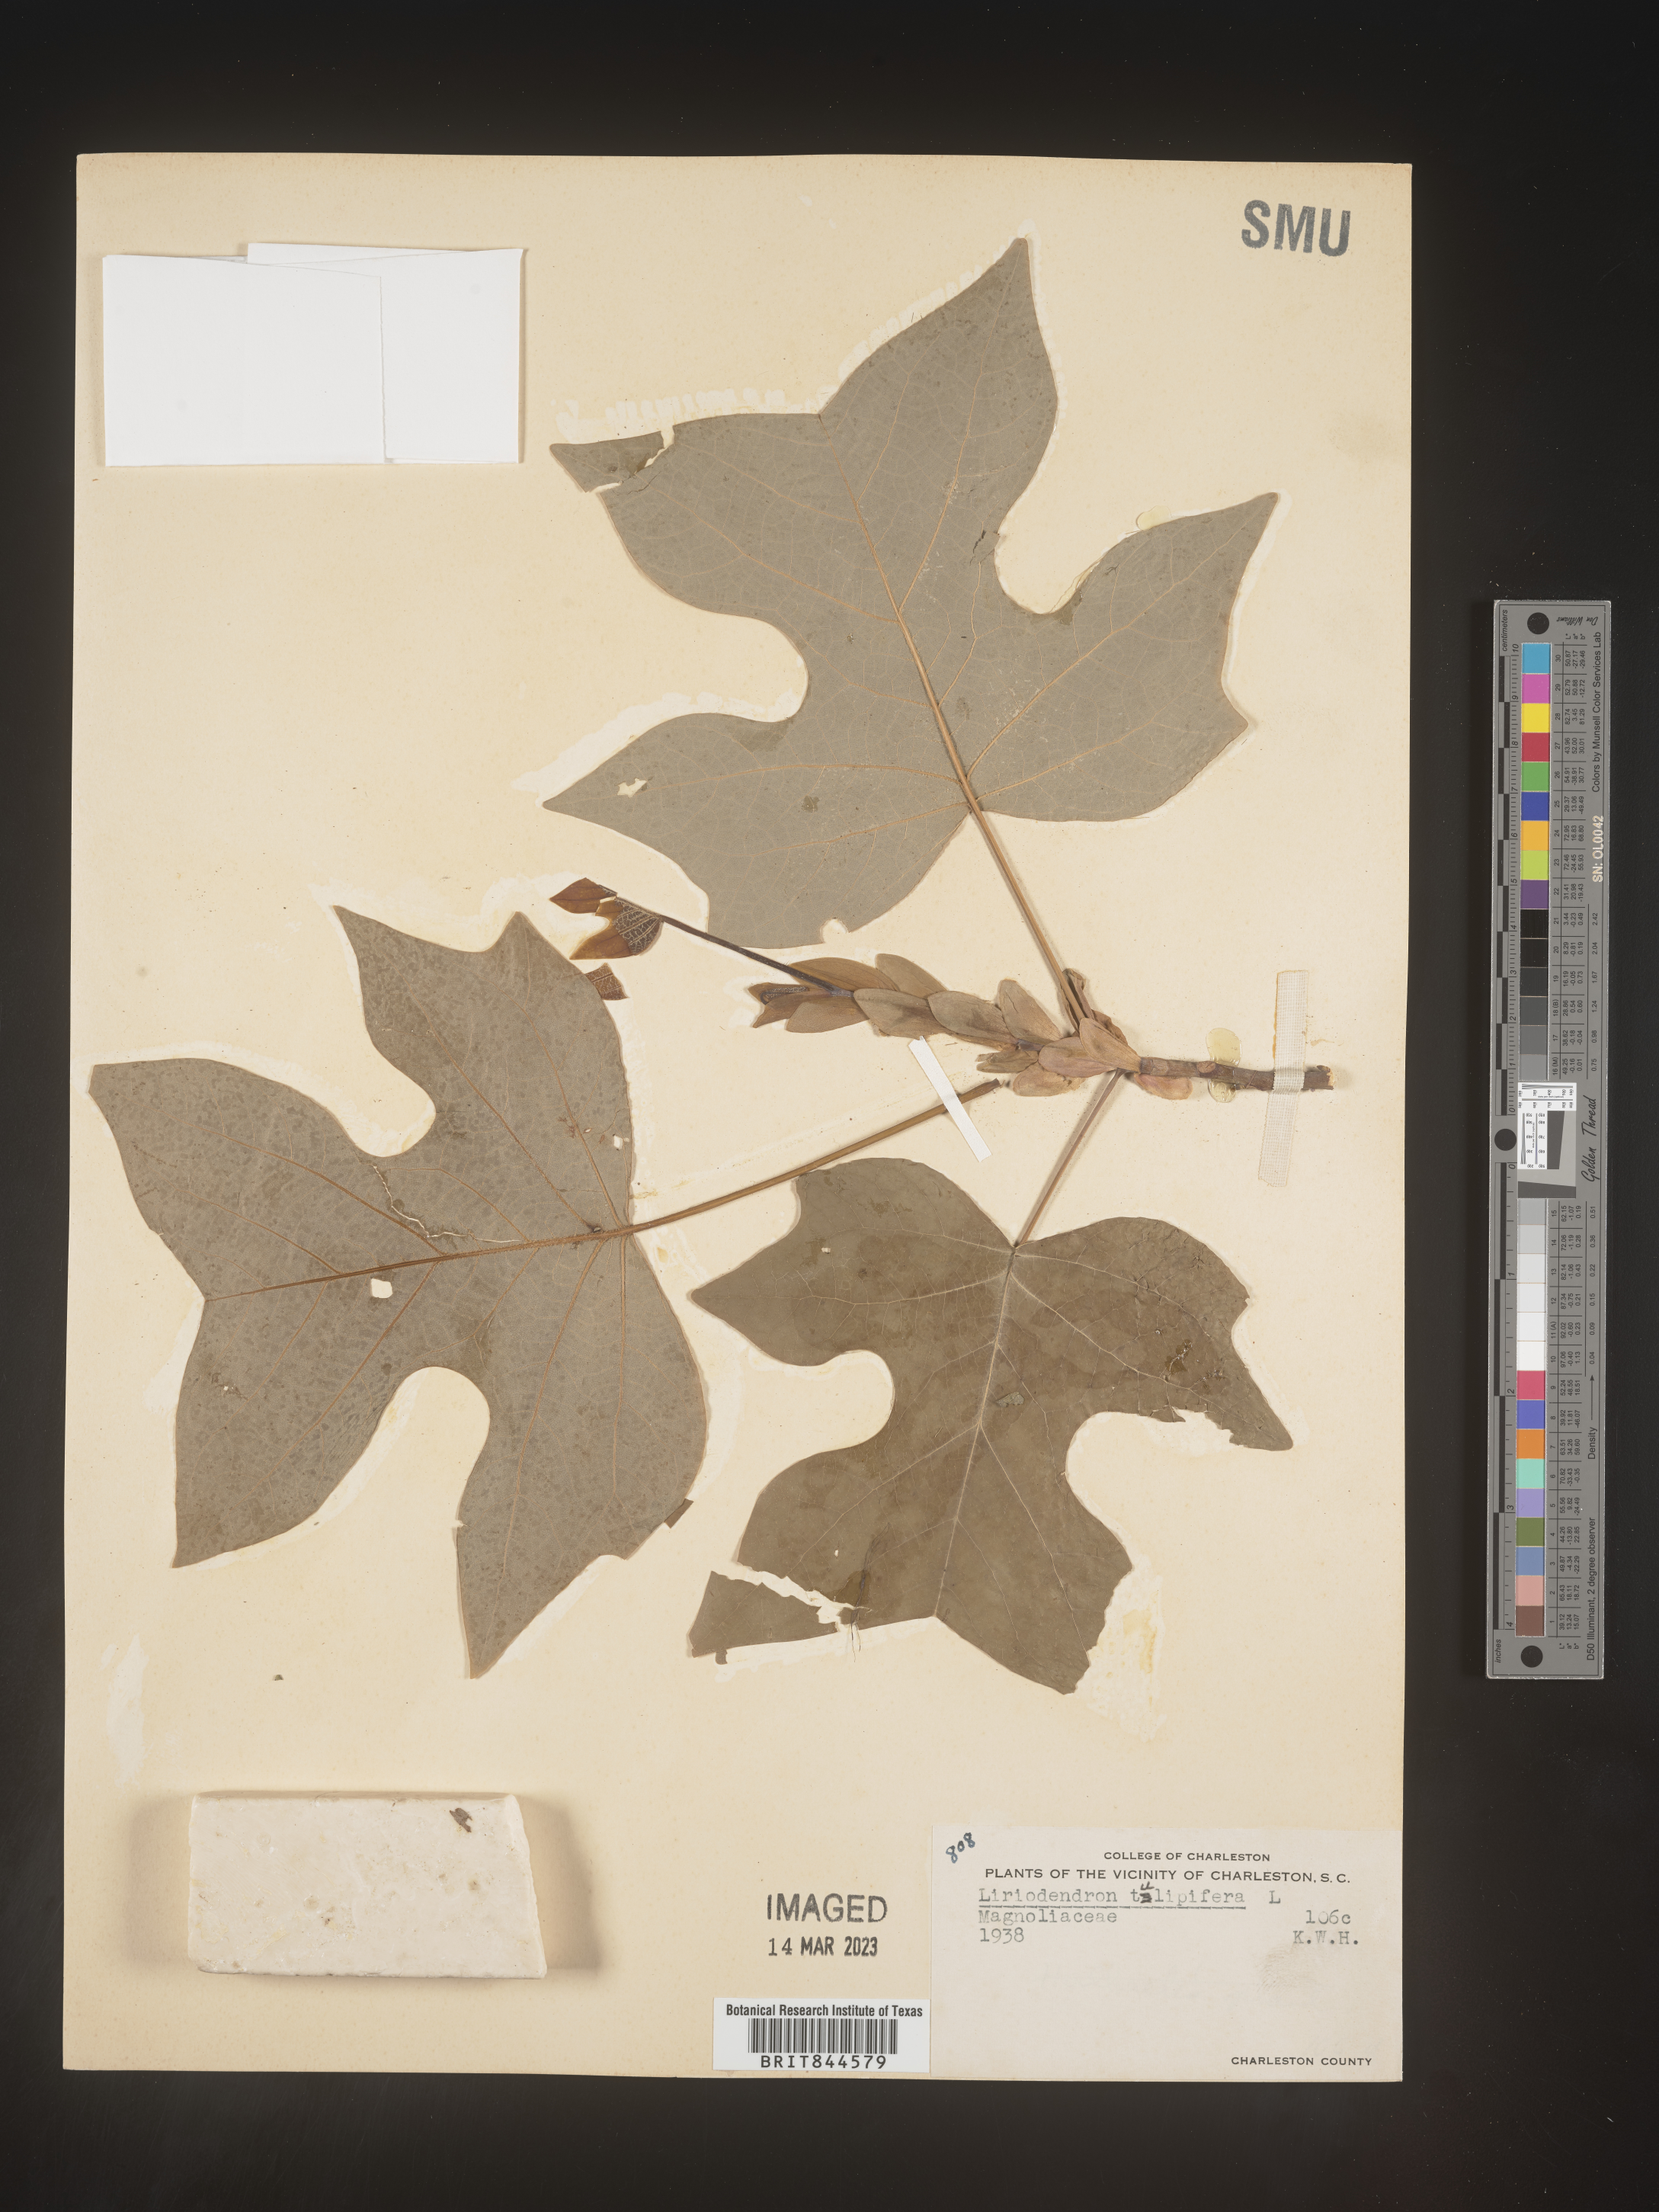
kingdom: Plantae
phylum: Tracheophyta
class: Magnoliopsida
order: Magnoliales
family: Magnoliaceae
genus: Liriodendron
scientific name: Liriodendron tulipifera
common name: Tulip tree
